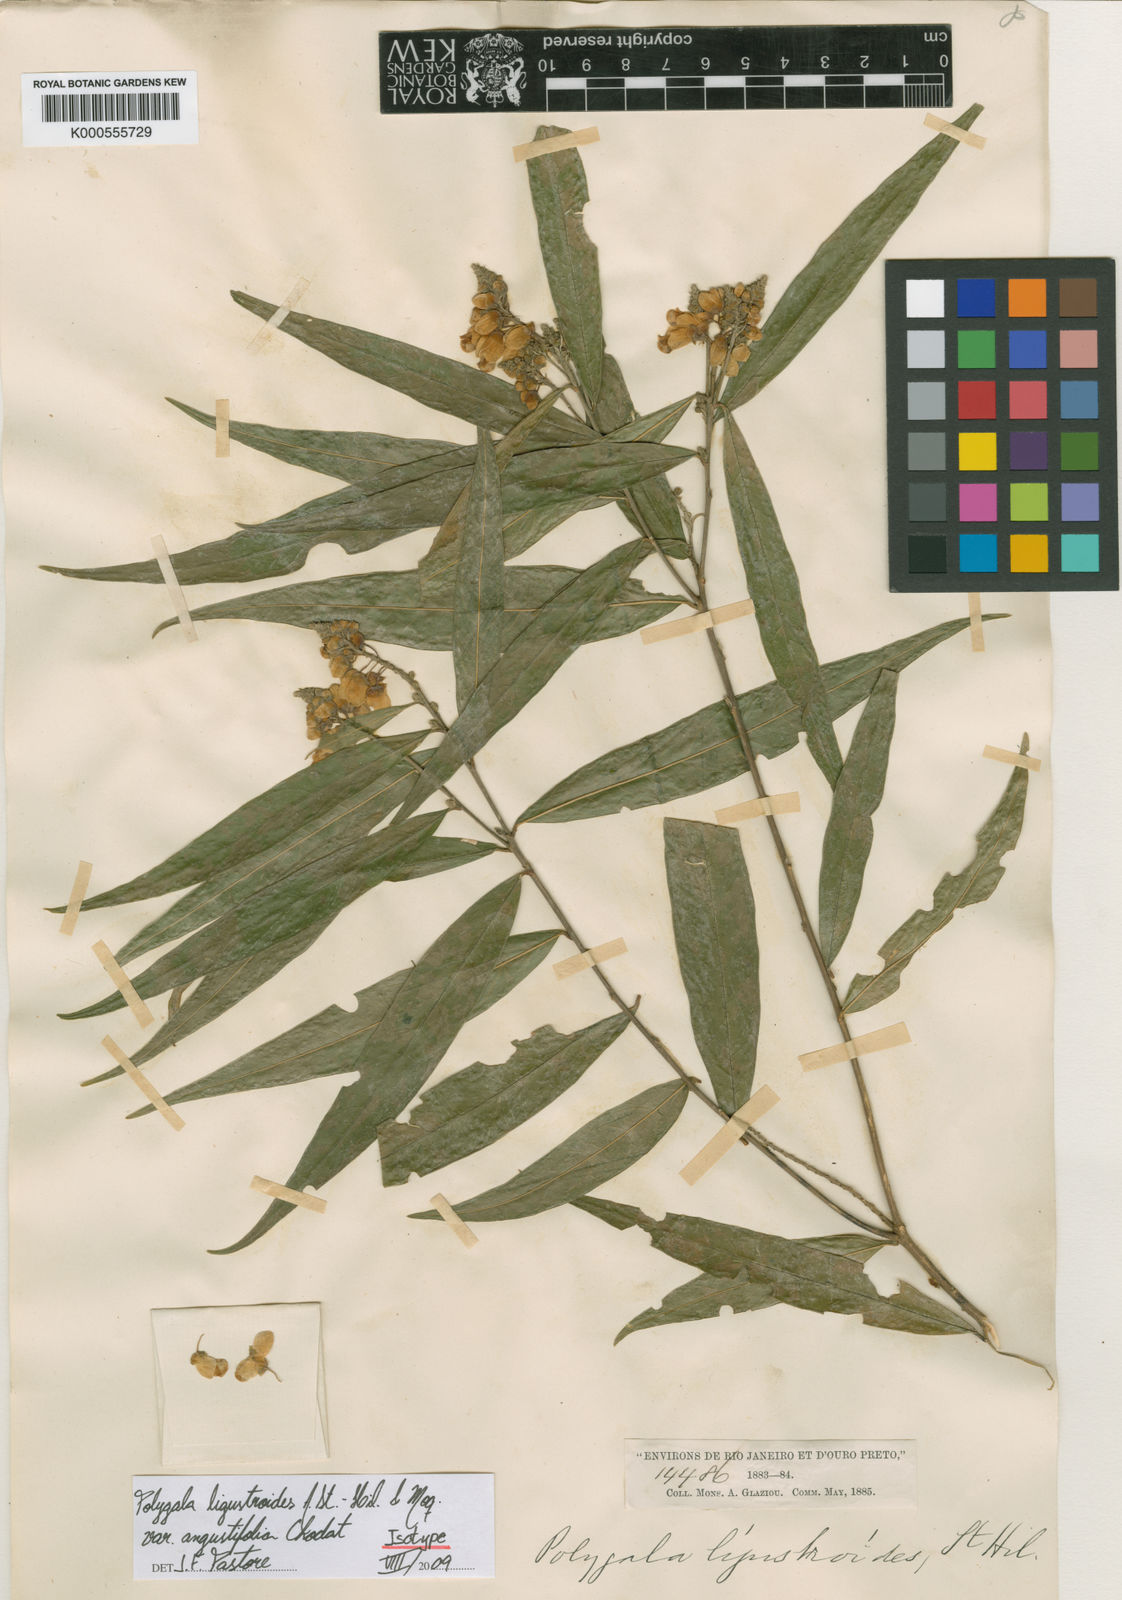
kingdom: Plantae
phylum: Tracheophyta
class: Magnoliopsida
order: Fabales
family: Polygalaceae
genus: Caamembeca
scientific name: Caamembeca oxyphylla
